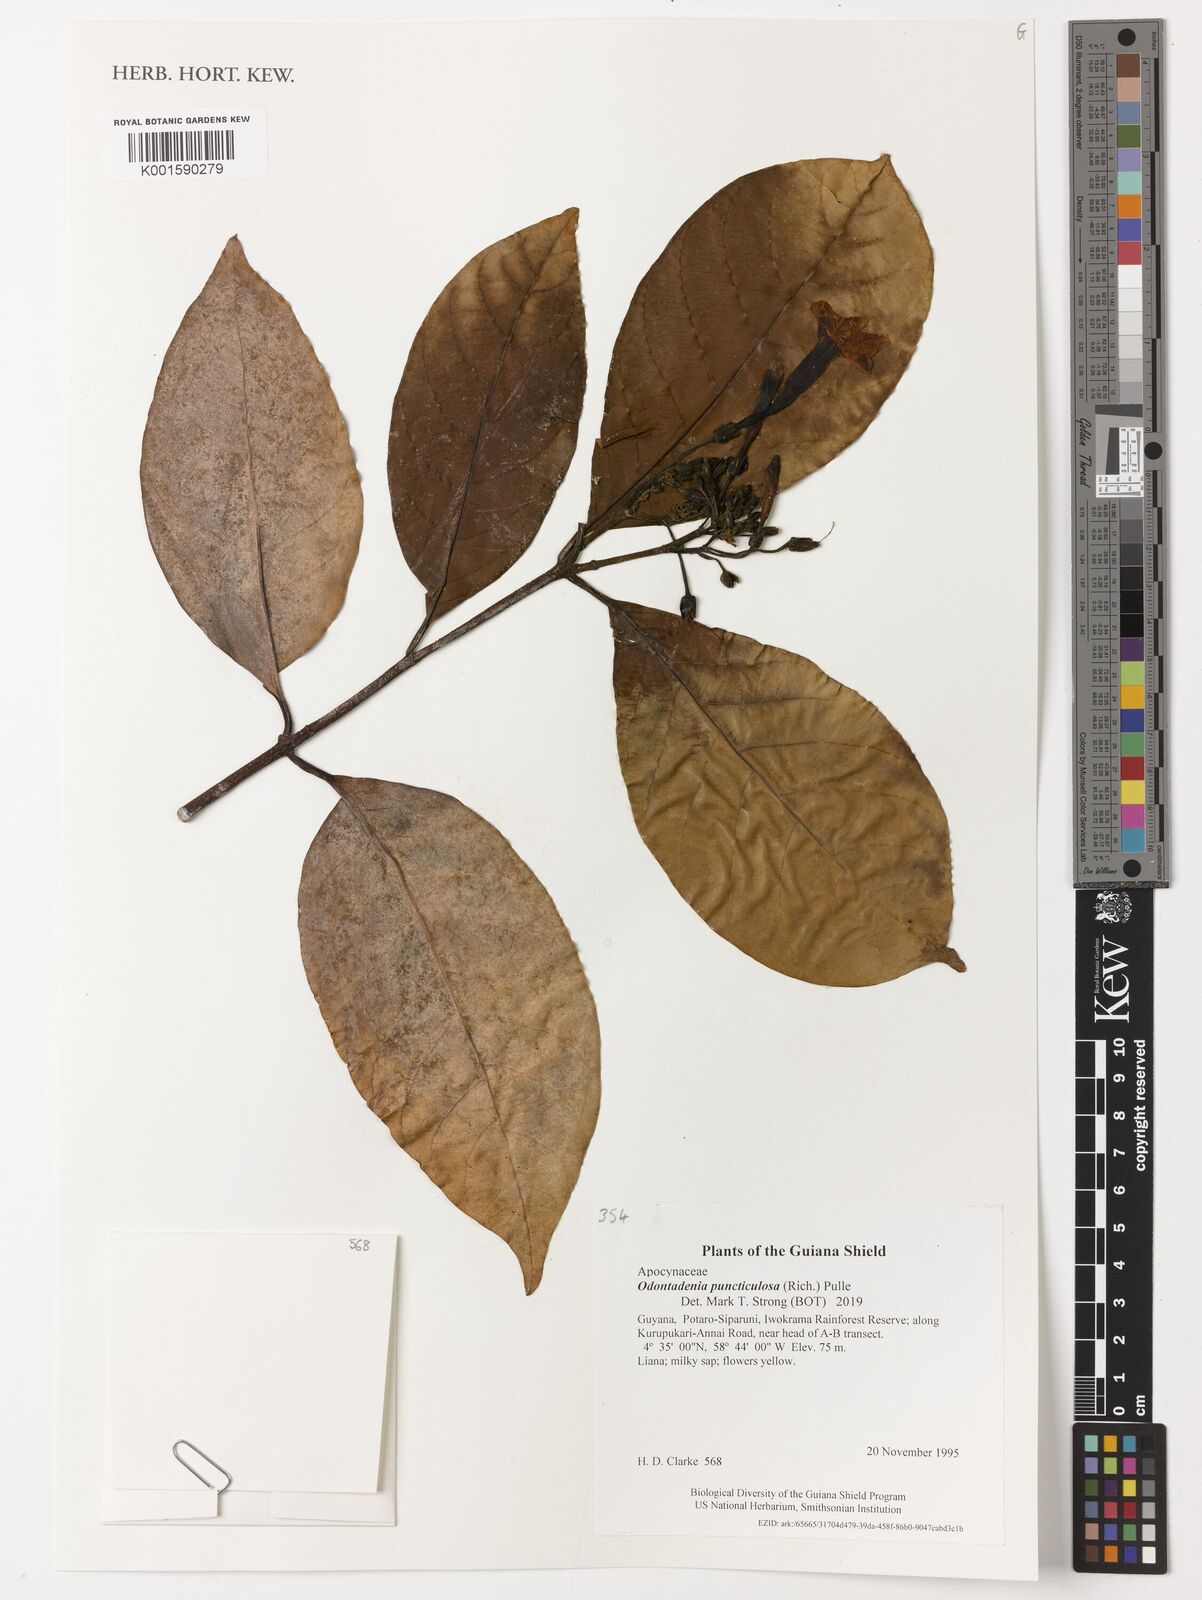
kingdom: Plantae
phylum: Tracheophyta
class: Magnoliopsida
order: Gentianales
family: Apocynaceae
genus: Odontadenia
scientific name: Odontadenia puncticulosa
